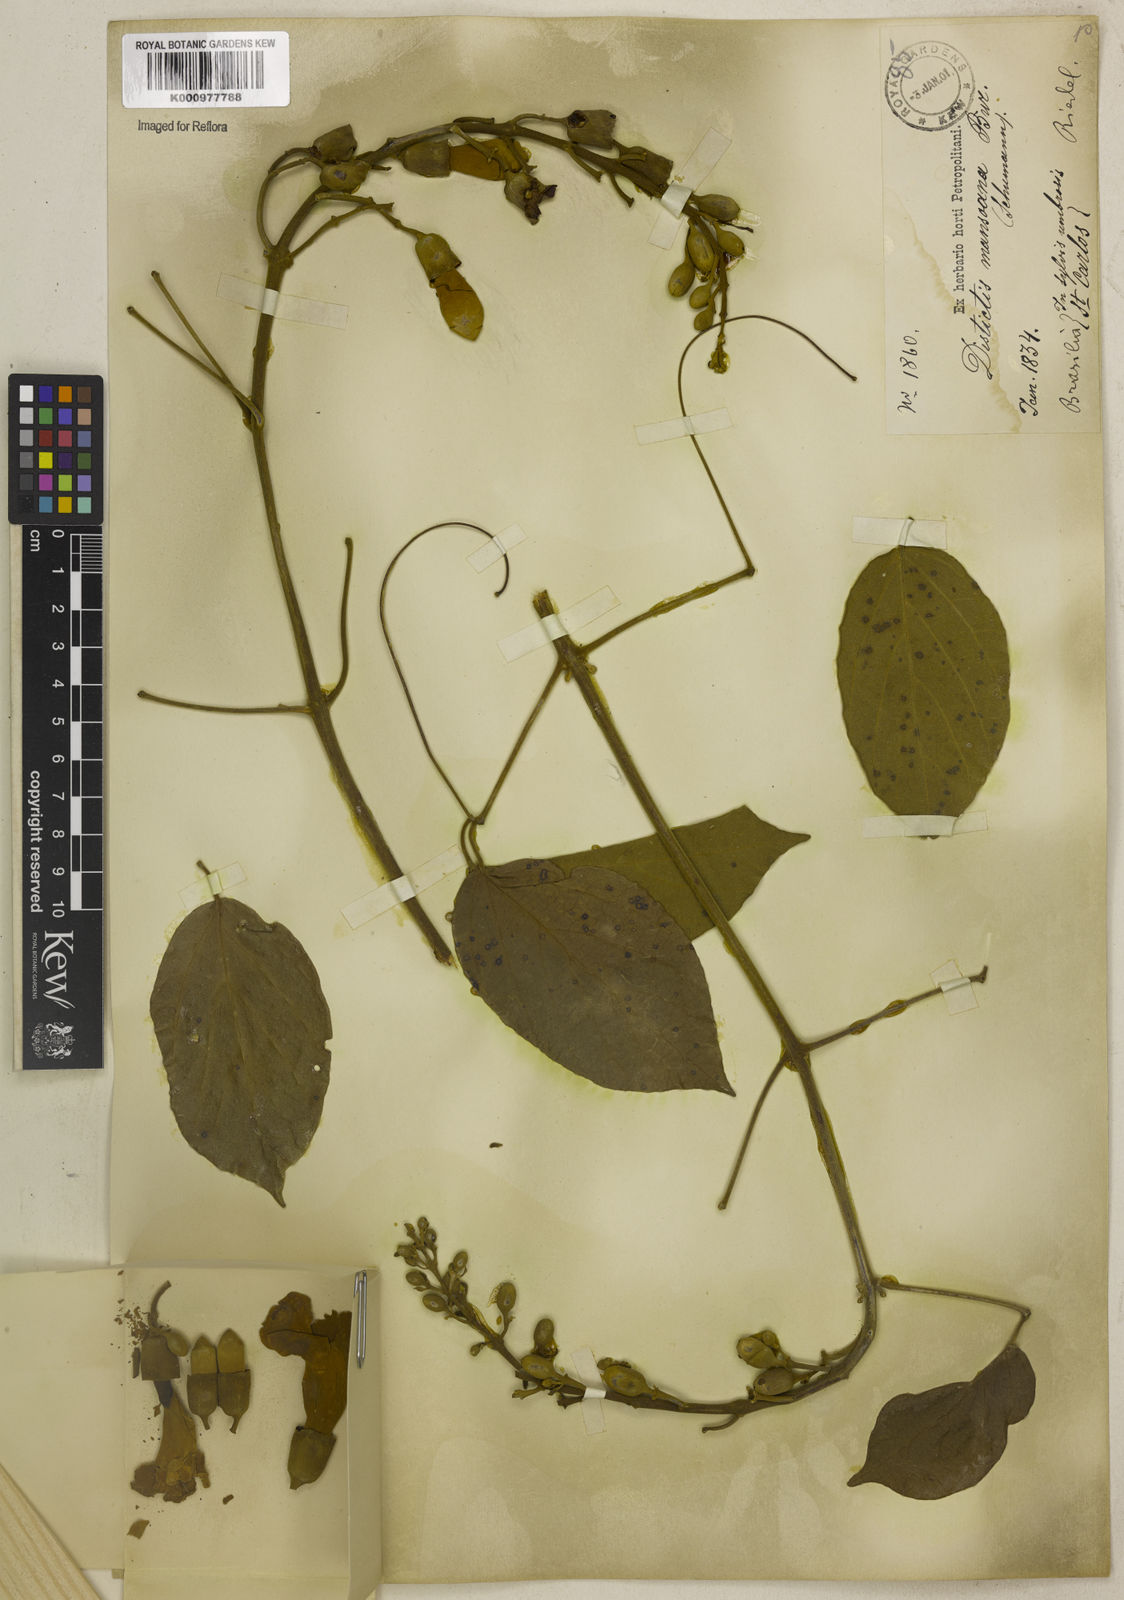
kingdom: Plantae
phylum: Tracheophyta
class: Magnoliopsida
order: Lamiales
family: Bignoniaceae
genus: Amphilophium
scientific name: Amphilophium mansoanum
